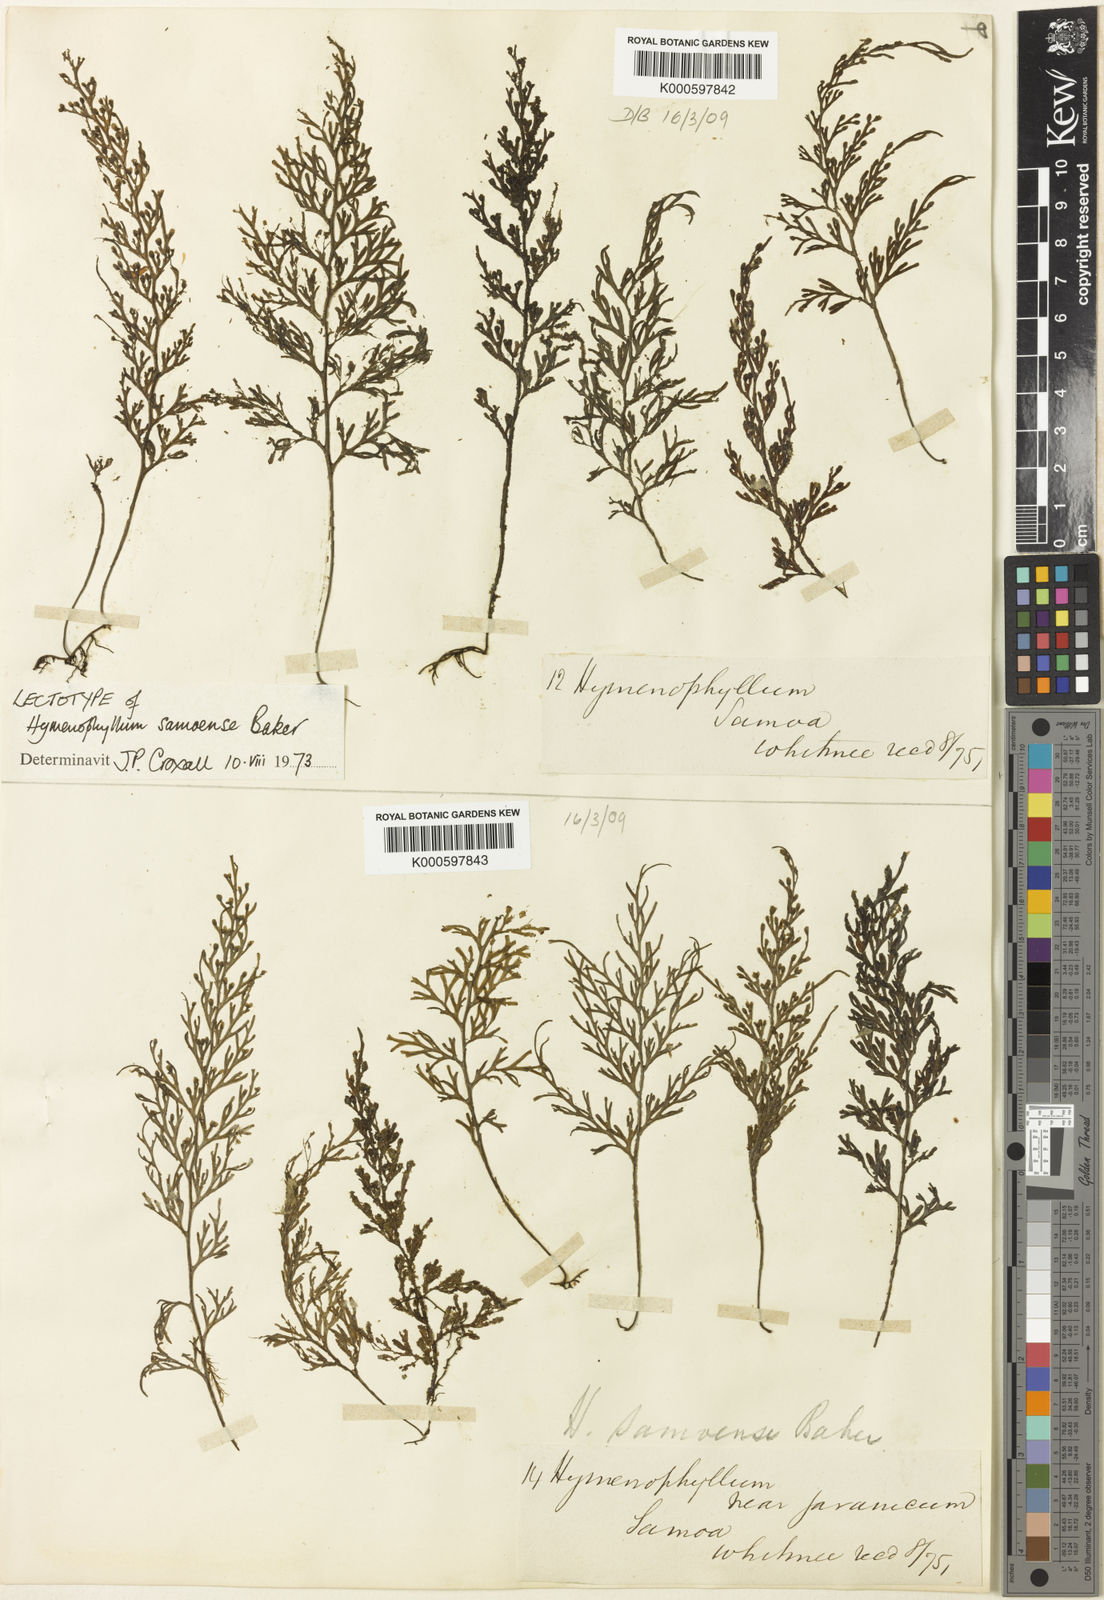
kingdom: Plantae
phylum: Tracheophyta
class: Polypodiopsida
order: Hymenophyllales
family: Hymenophyllaceae
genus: Hymenophyllum
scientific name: Hymenophyllum javanicum
